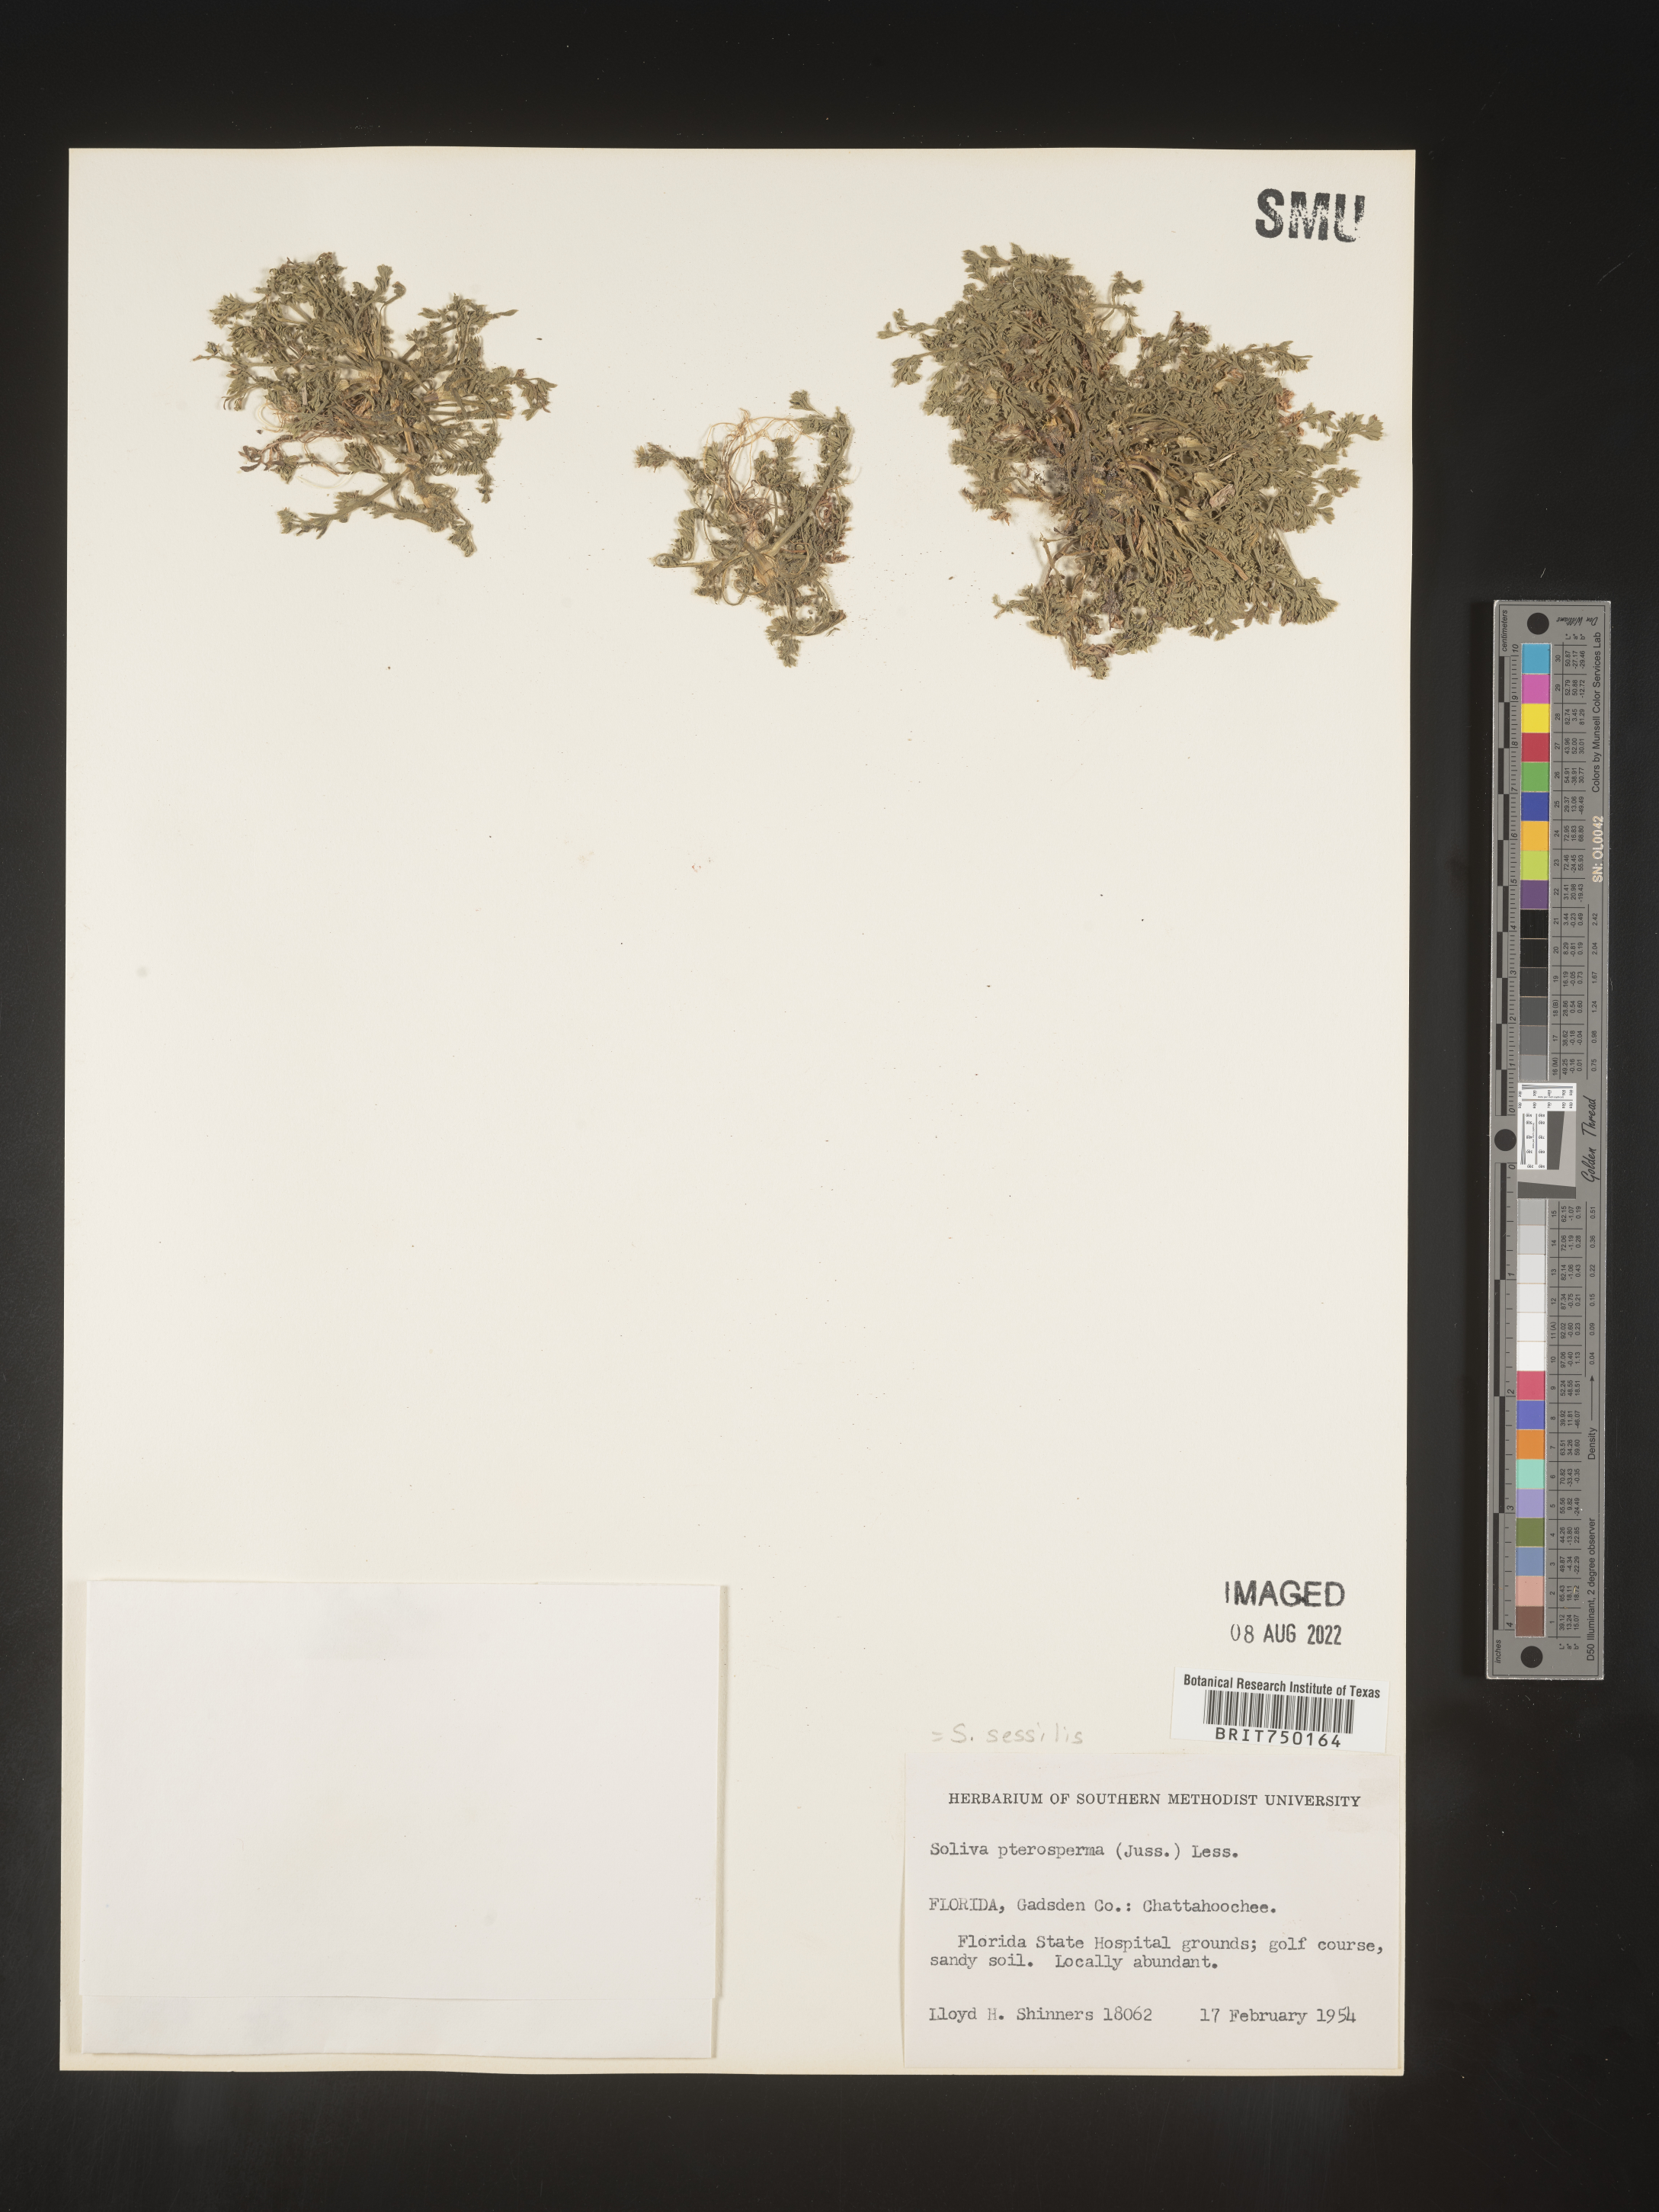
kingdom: Plantae
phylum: Tracheophyta
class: Magnoliopsida
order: Asterales
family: Asteraceae
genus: Soliva
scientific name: Soliva sessilis
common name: Field burrweed
